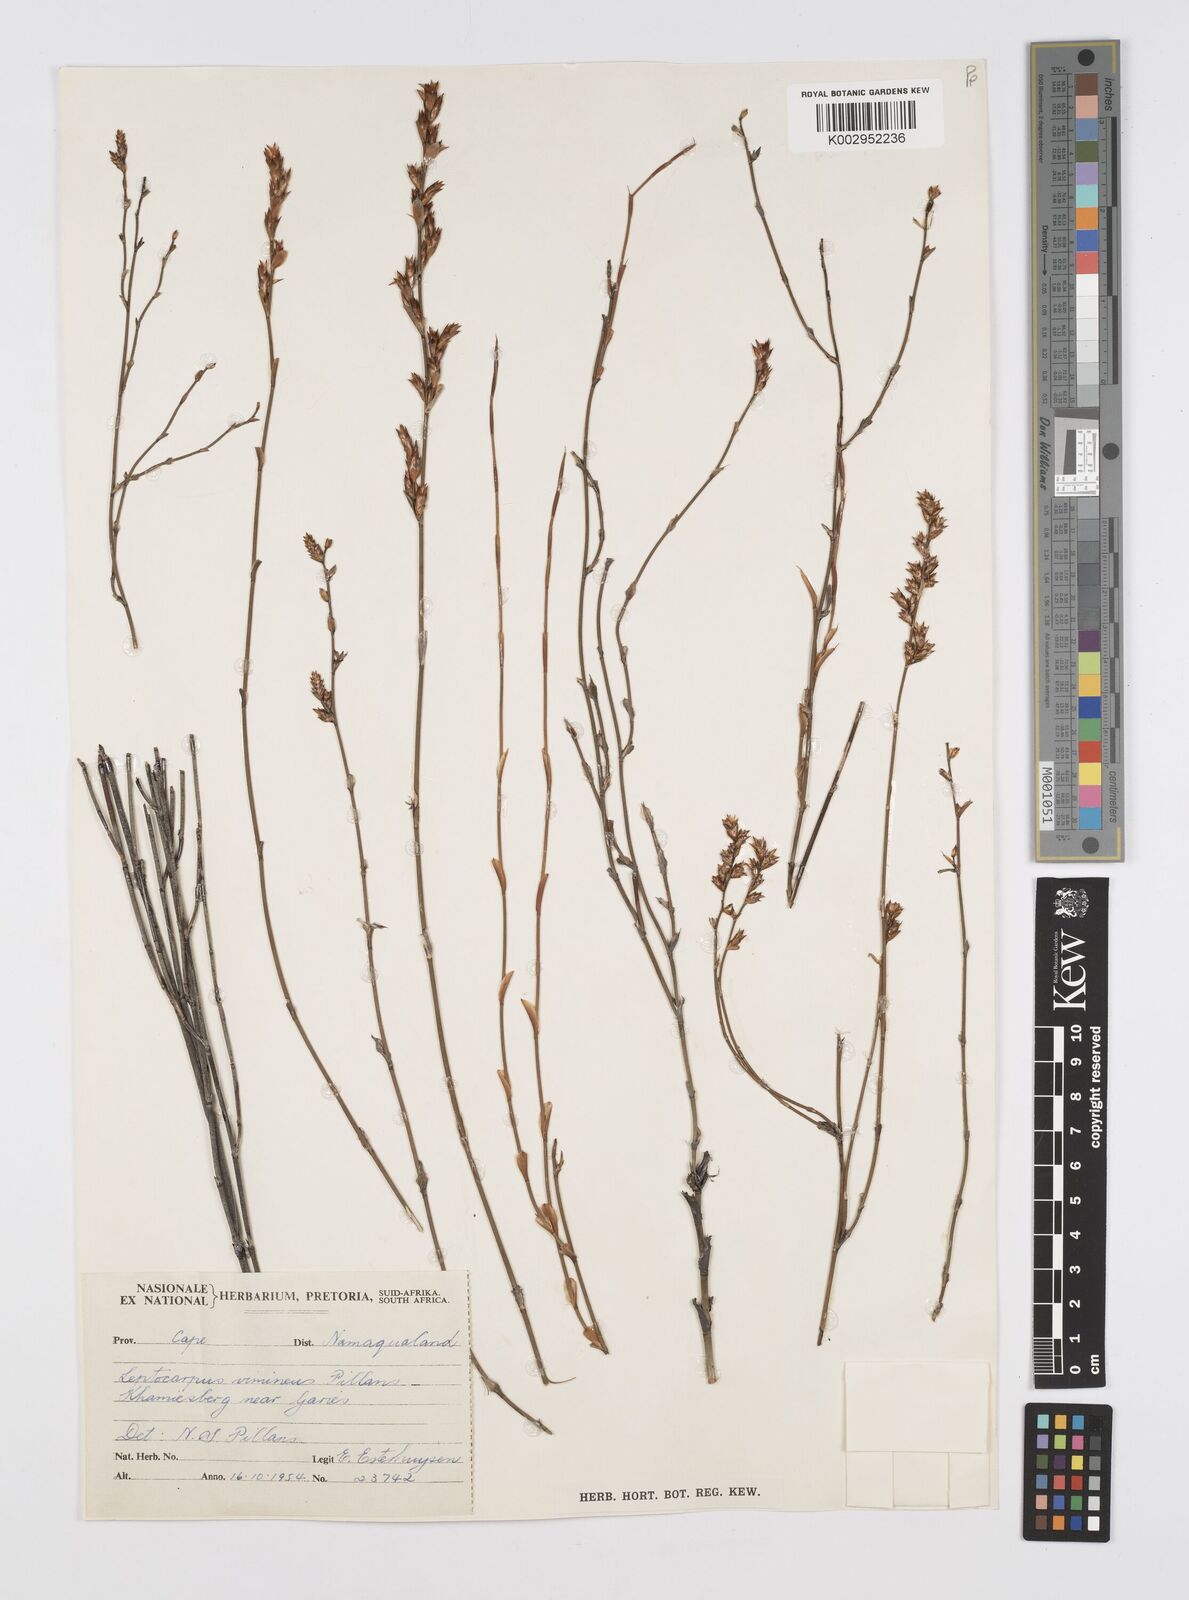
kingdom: Plantae
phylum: Tracheophyta
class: Liliopsida
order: Poales
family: Restionaceae
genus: Restio
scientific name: Restio vimineus
